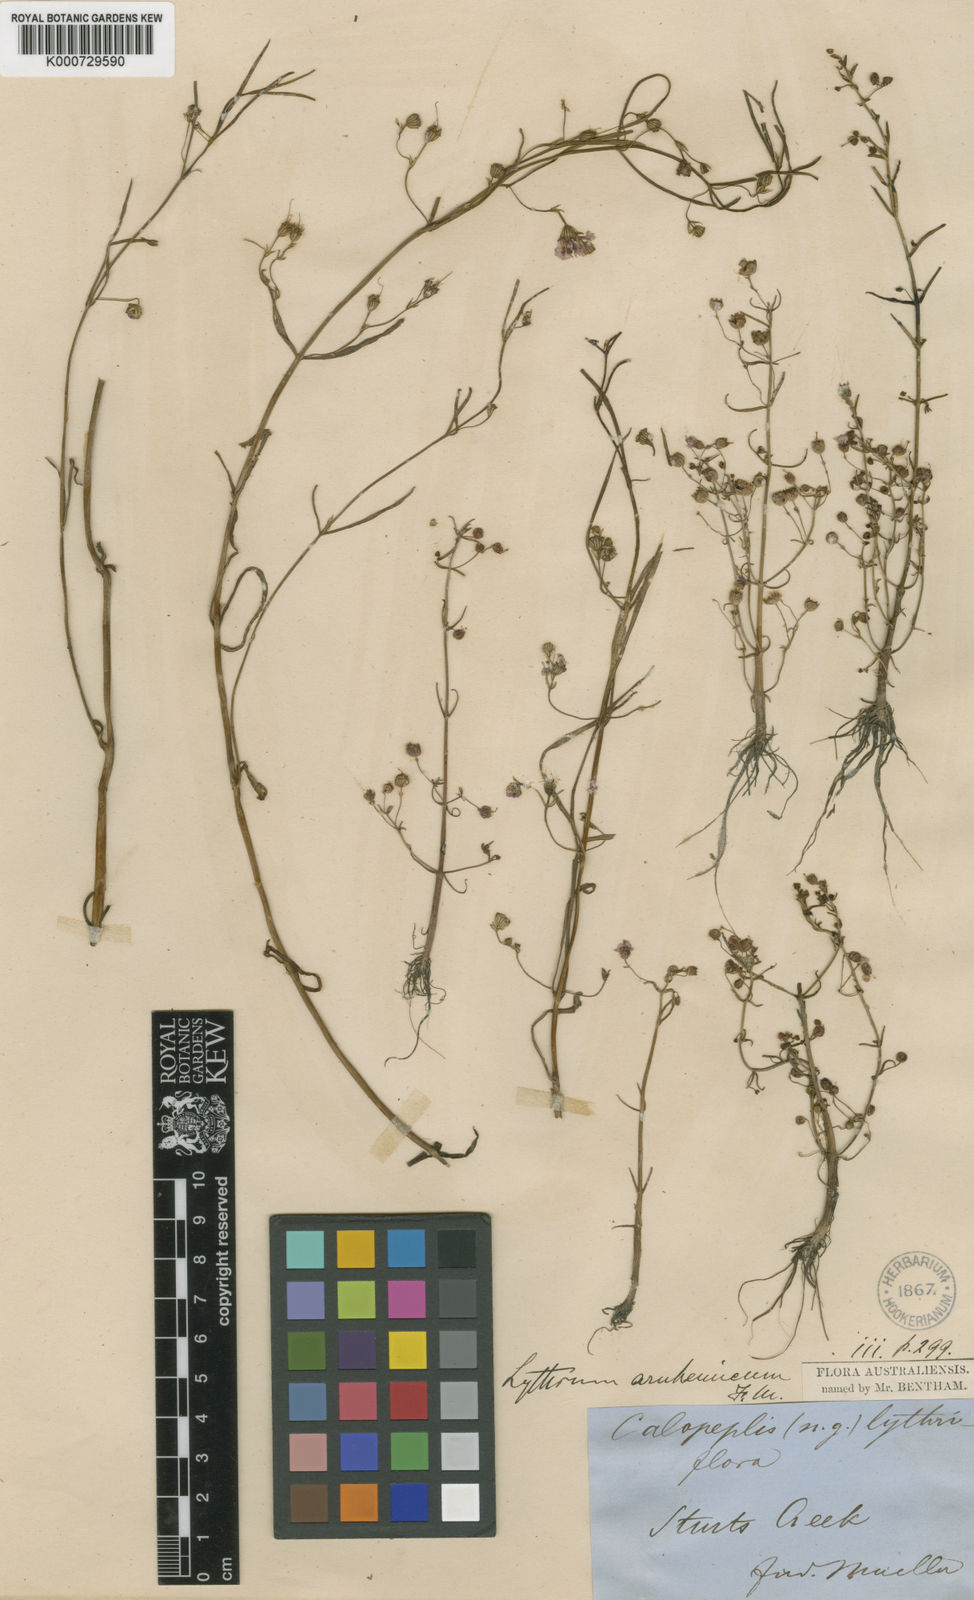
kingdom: Plantae
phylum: Tracheophyta
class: Magnoliopsida
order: Myrtales
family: Lythraceae
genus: Ammannia
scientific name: Ammannia arnhemica
